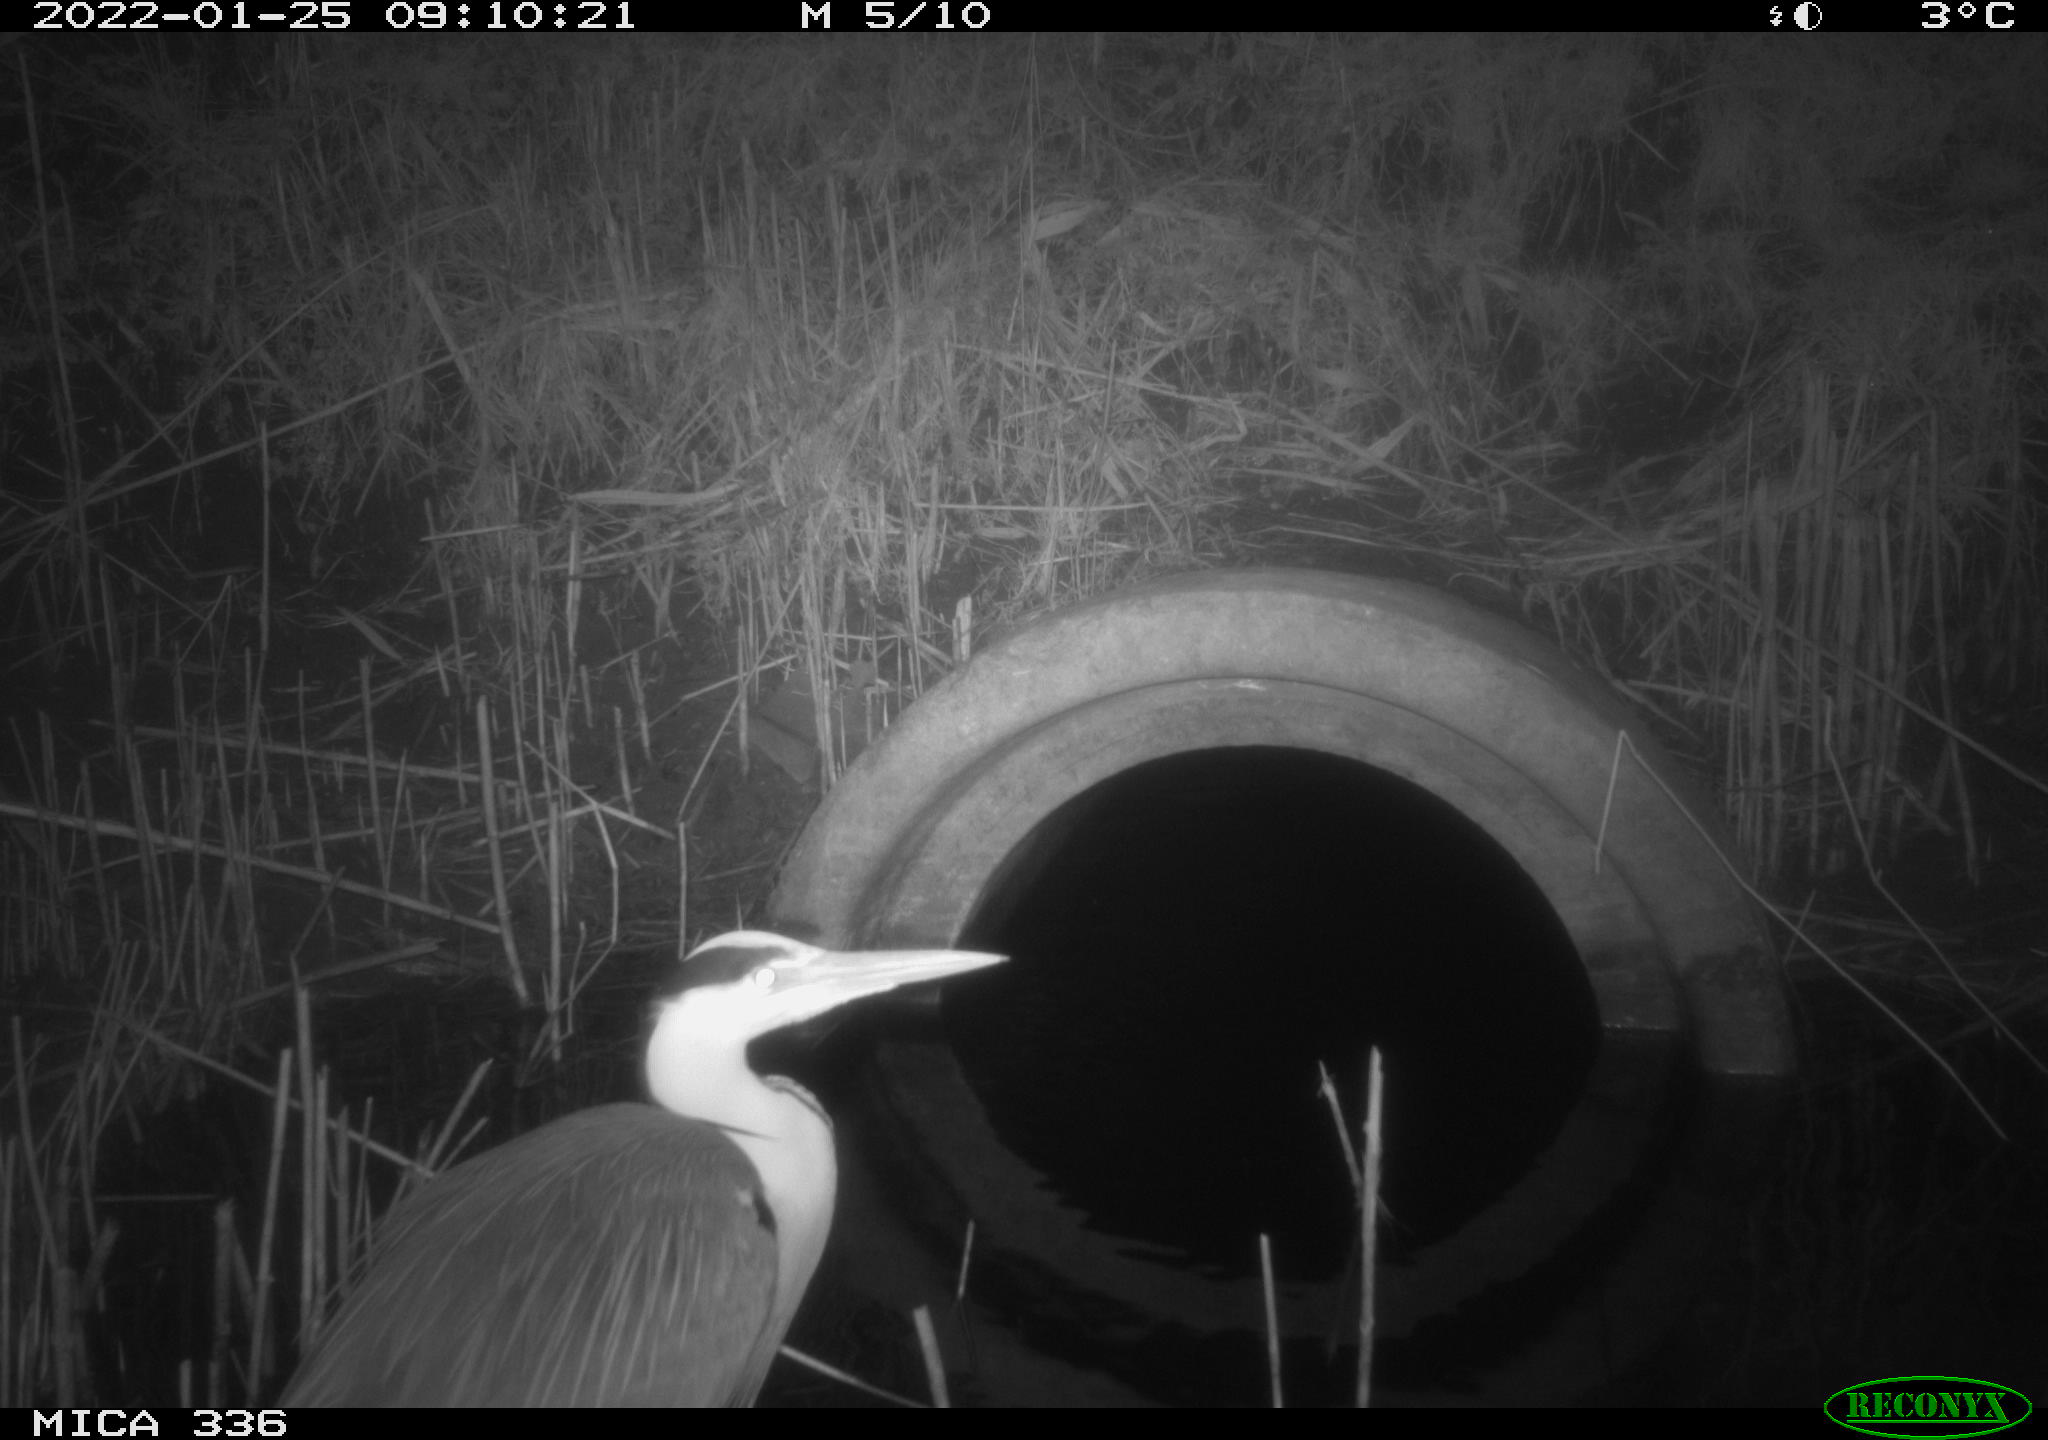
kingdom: Animalia
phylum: Chordata
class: Aves
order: Pelecaniformes
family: Ardeidae
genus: Ardea
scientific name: Ardea cinerea
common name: Grey heron
